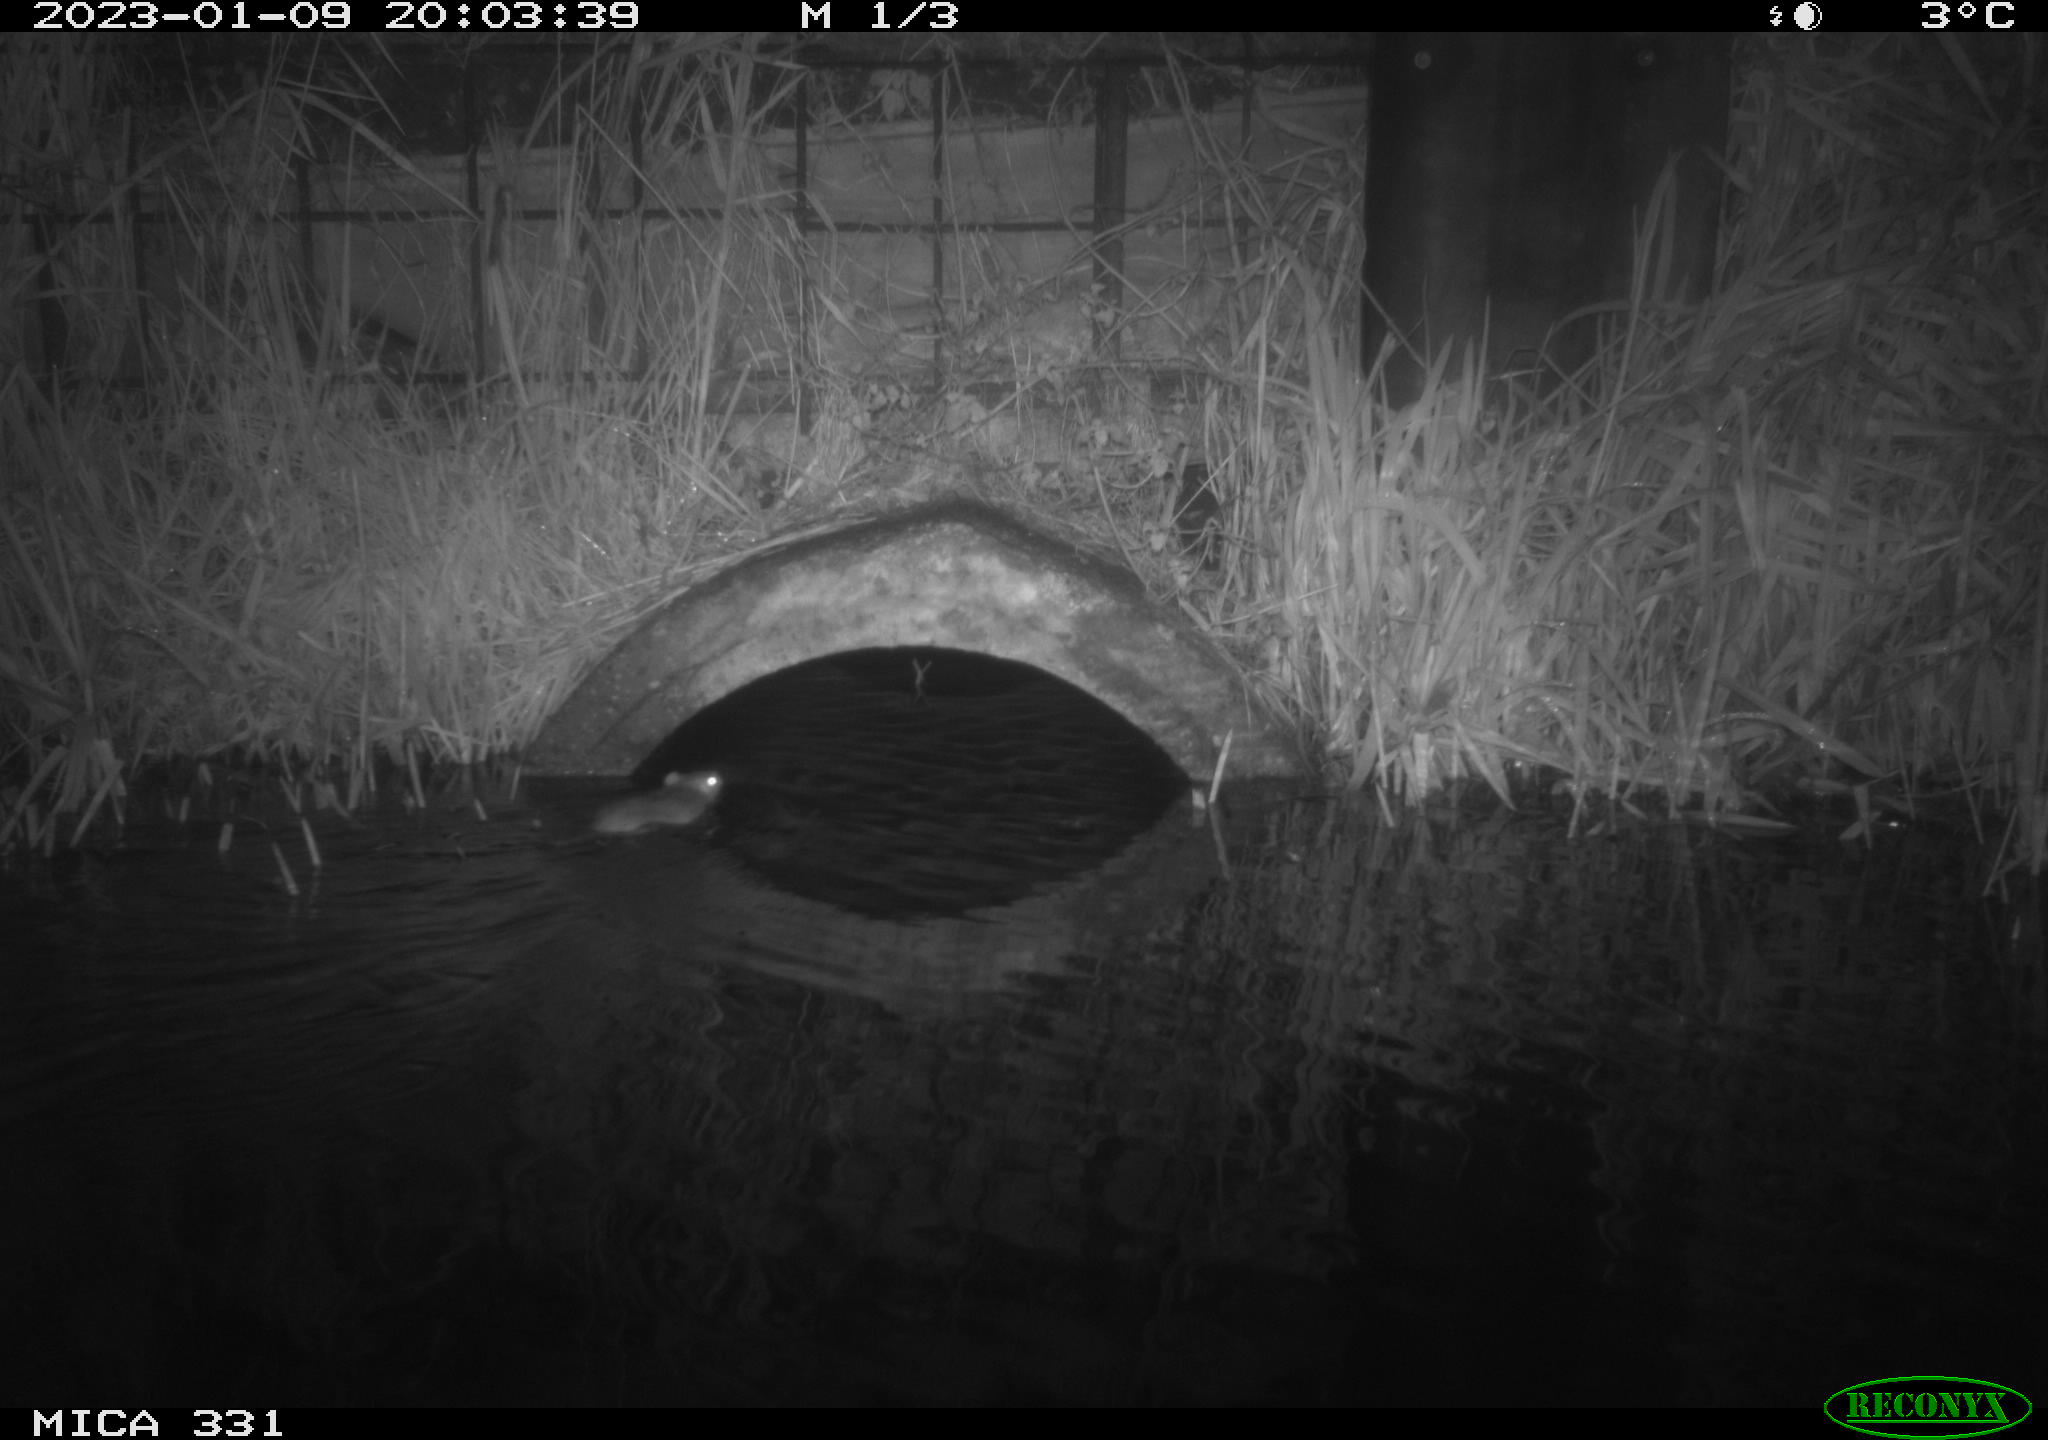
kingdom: Animalia
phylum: Chordata
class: Mammalia
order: Rodentia
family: Muridae
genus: Rattus
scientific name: Rattus norvegicus
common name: Brown rat
